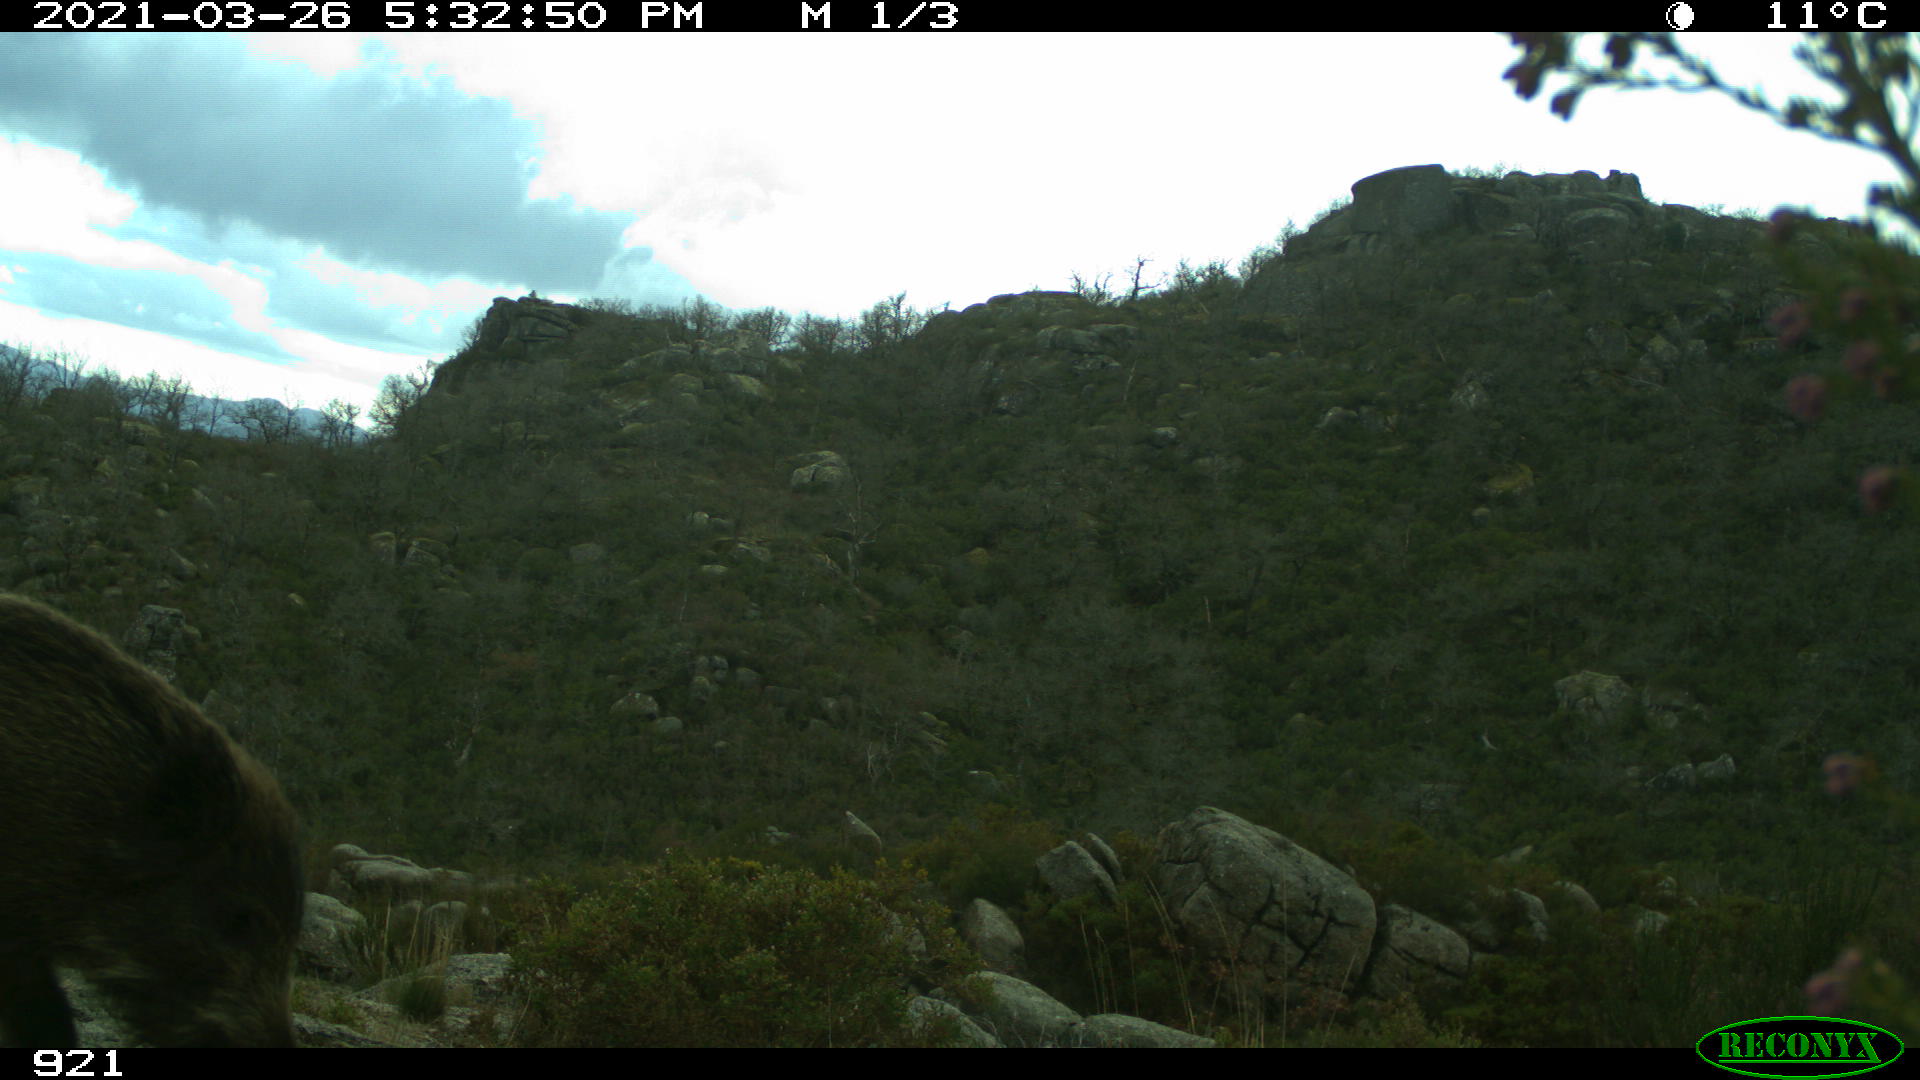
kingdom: Animalia
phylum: Chordata
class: Mammalia
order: Artiodactyla
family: Suidae
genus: Sus
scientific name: Sus scrofa
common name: Wild boar
